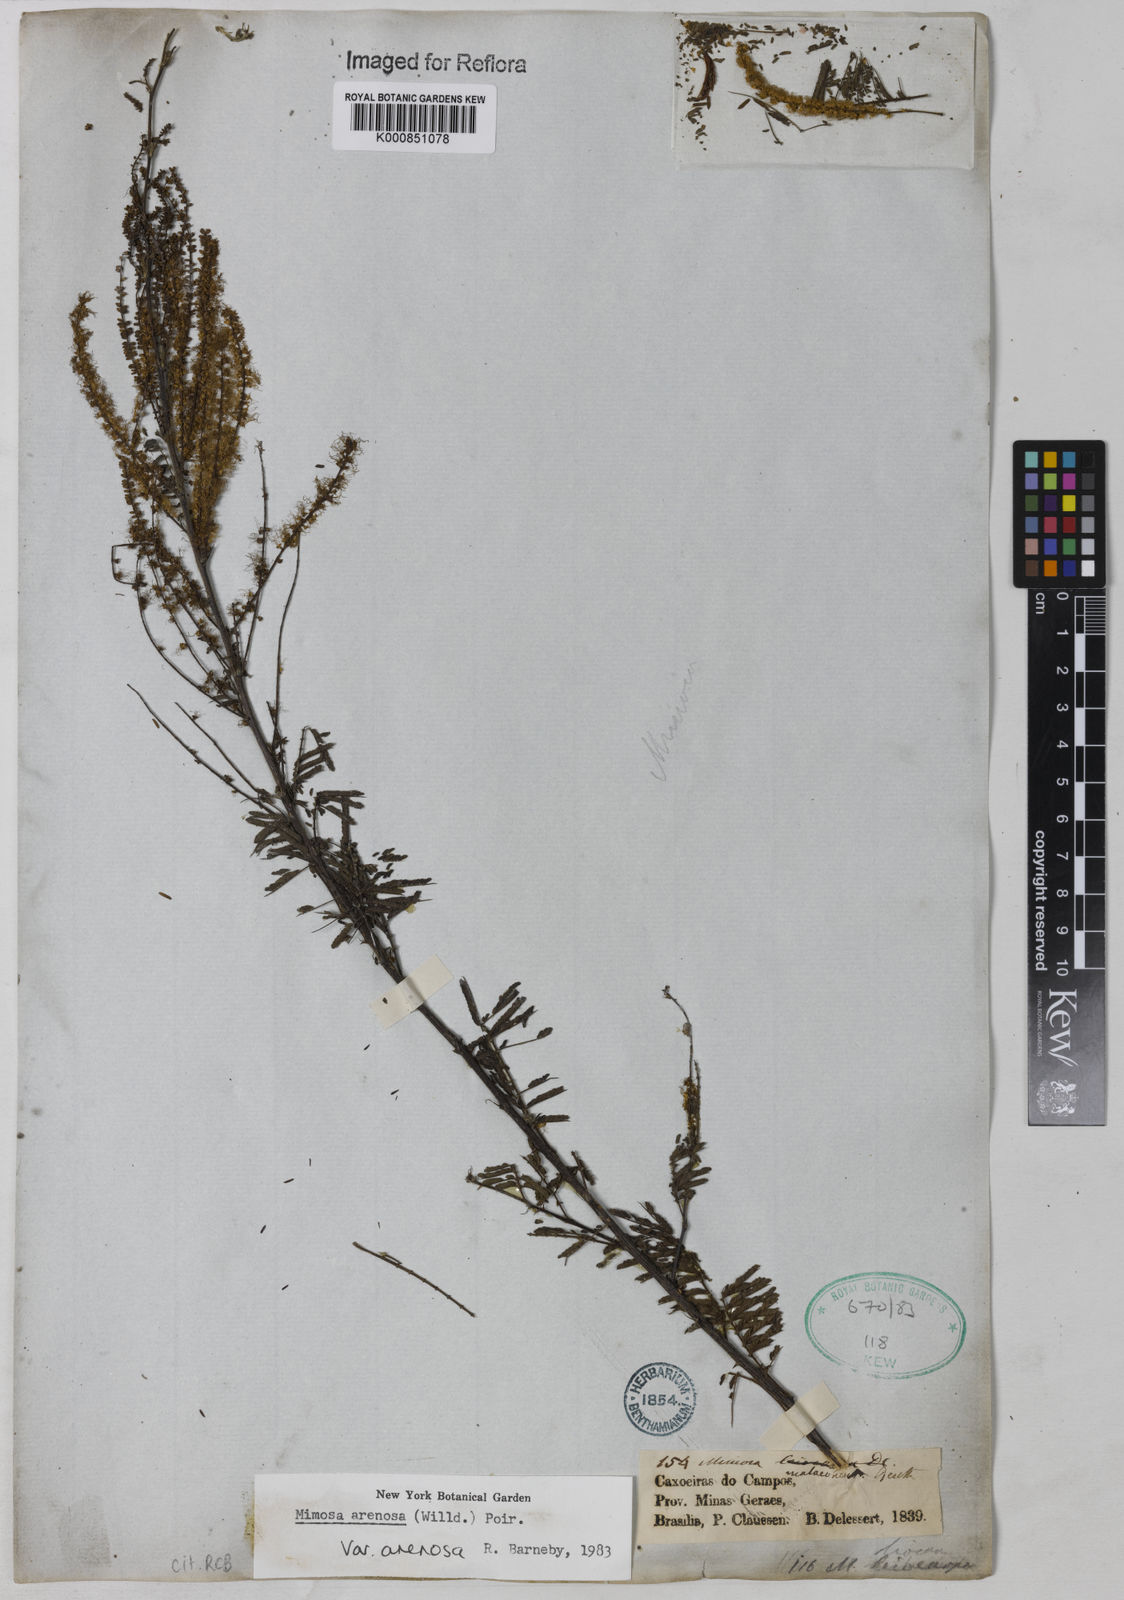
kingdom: Plantae
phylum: Tracheophyta
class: Magnoliopsida
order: Fabales
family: Fabaceae
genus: Mimosa
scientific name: Mimosa arenosa
